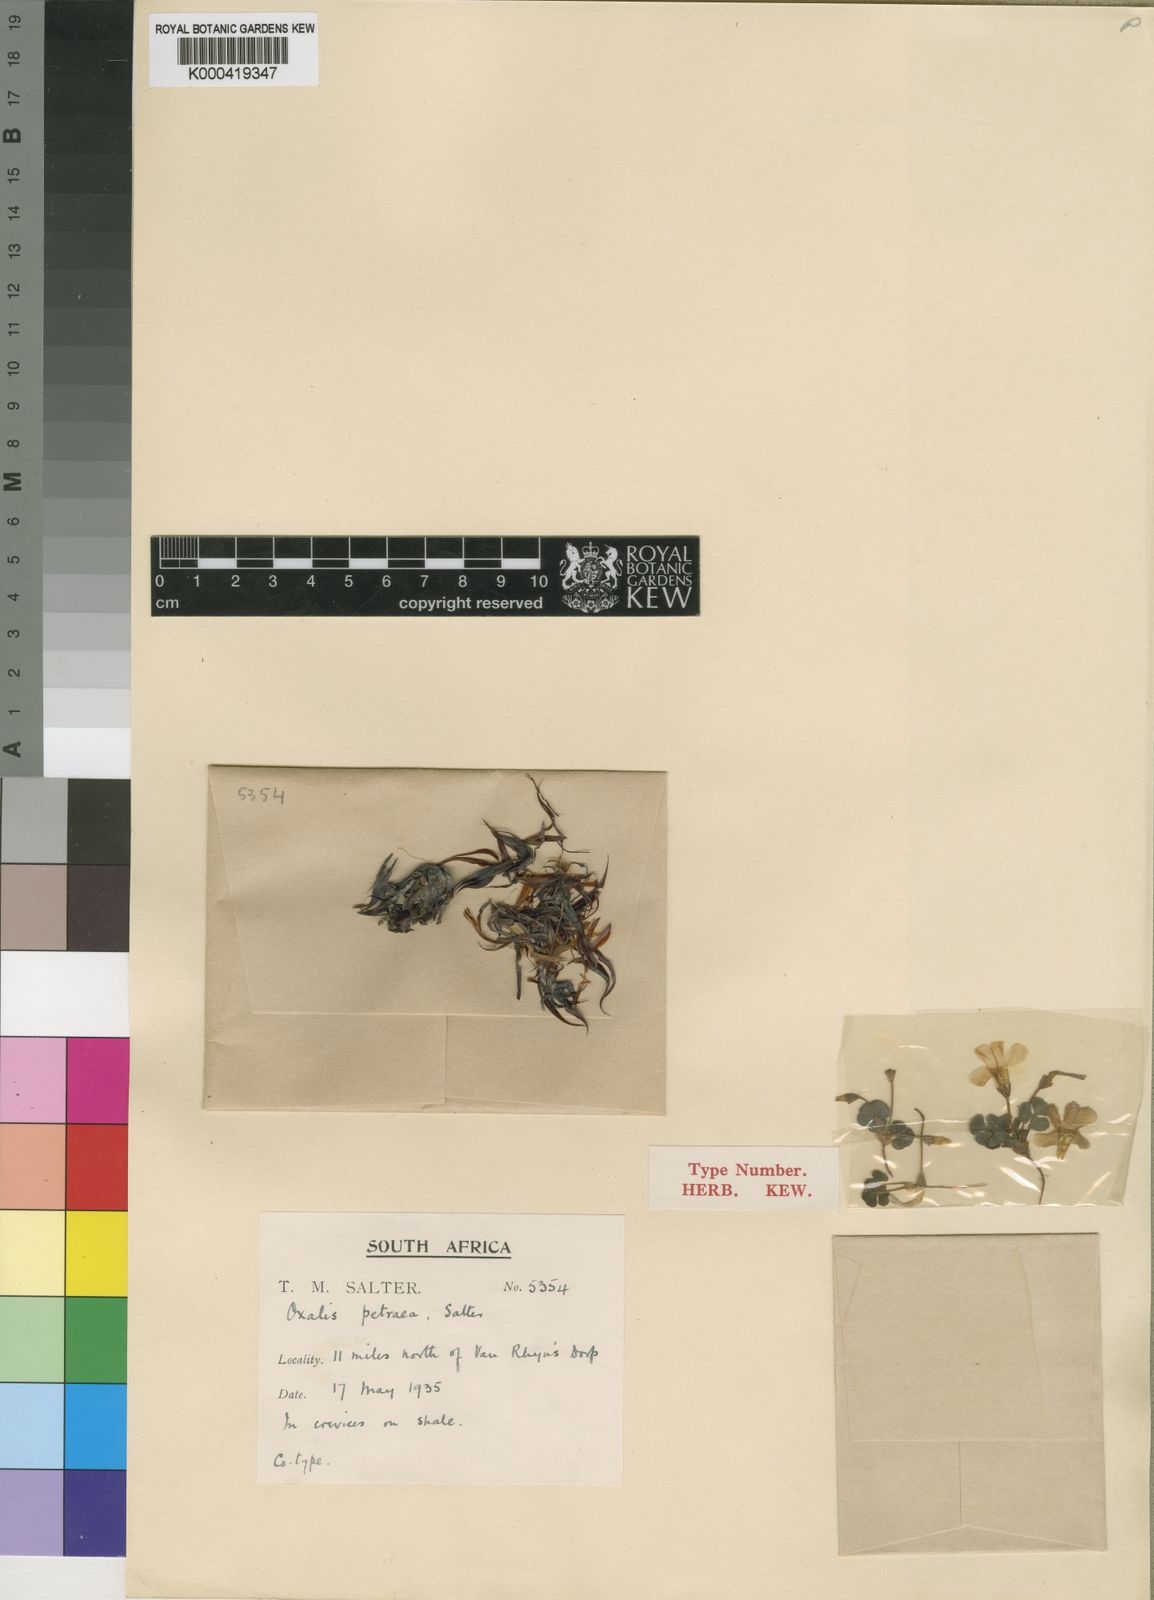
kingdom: Plantae
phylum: Tracheophyta
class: Magnoliopsida
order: Oxalidales
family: Oxalidaceae
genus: Oxalis
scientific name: Oxalis petraea
